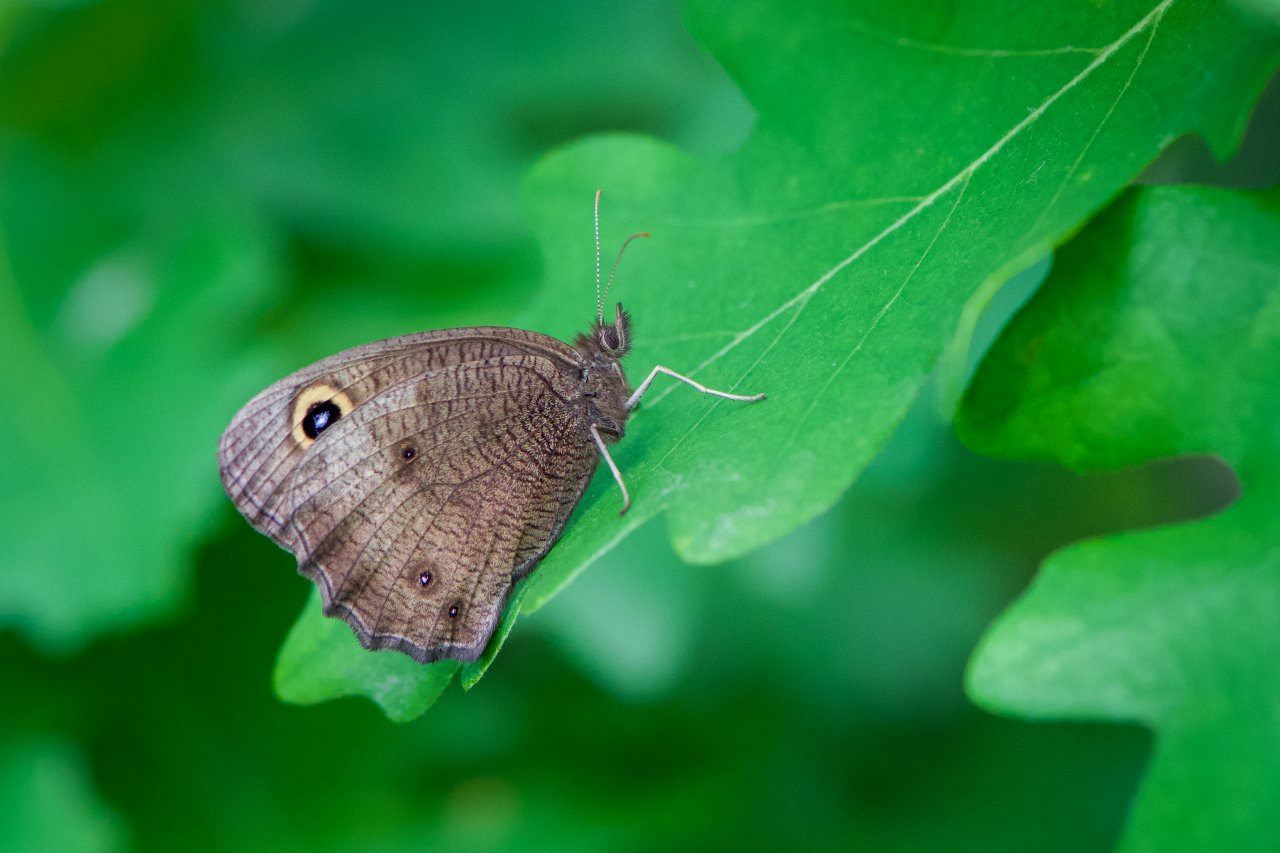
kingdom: Animalia
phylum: Arthropoda
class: Insecta
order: Lepidoptera
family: Nymphalidae
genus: Cercyonis
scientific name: Cercyonis pegala
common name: Common Wood-Nymph
